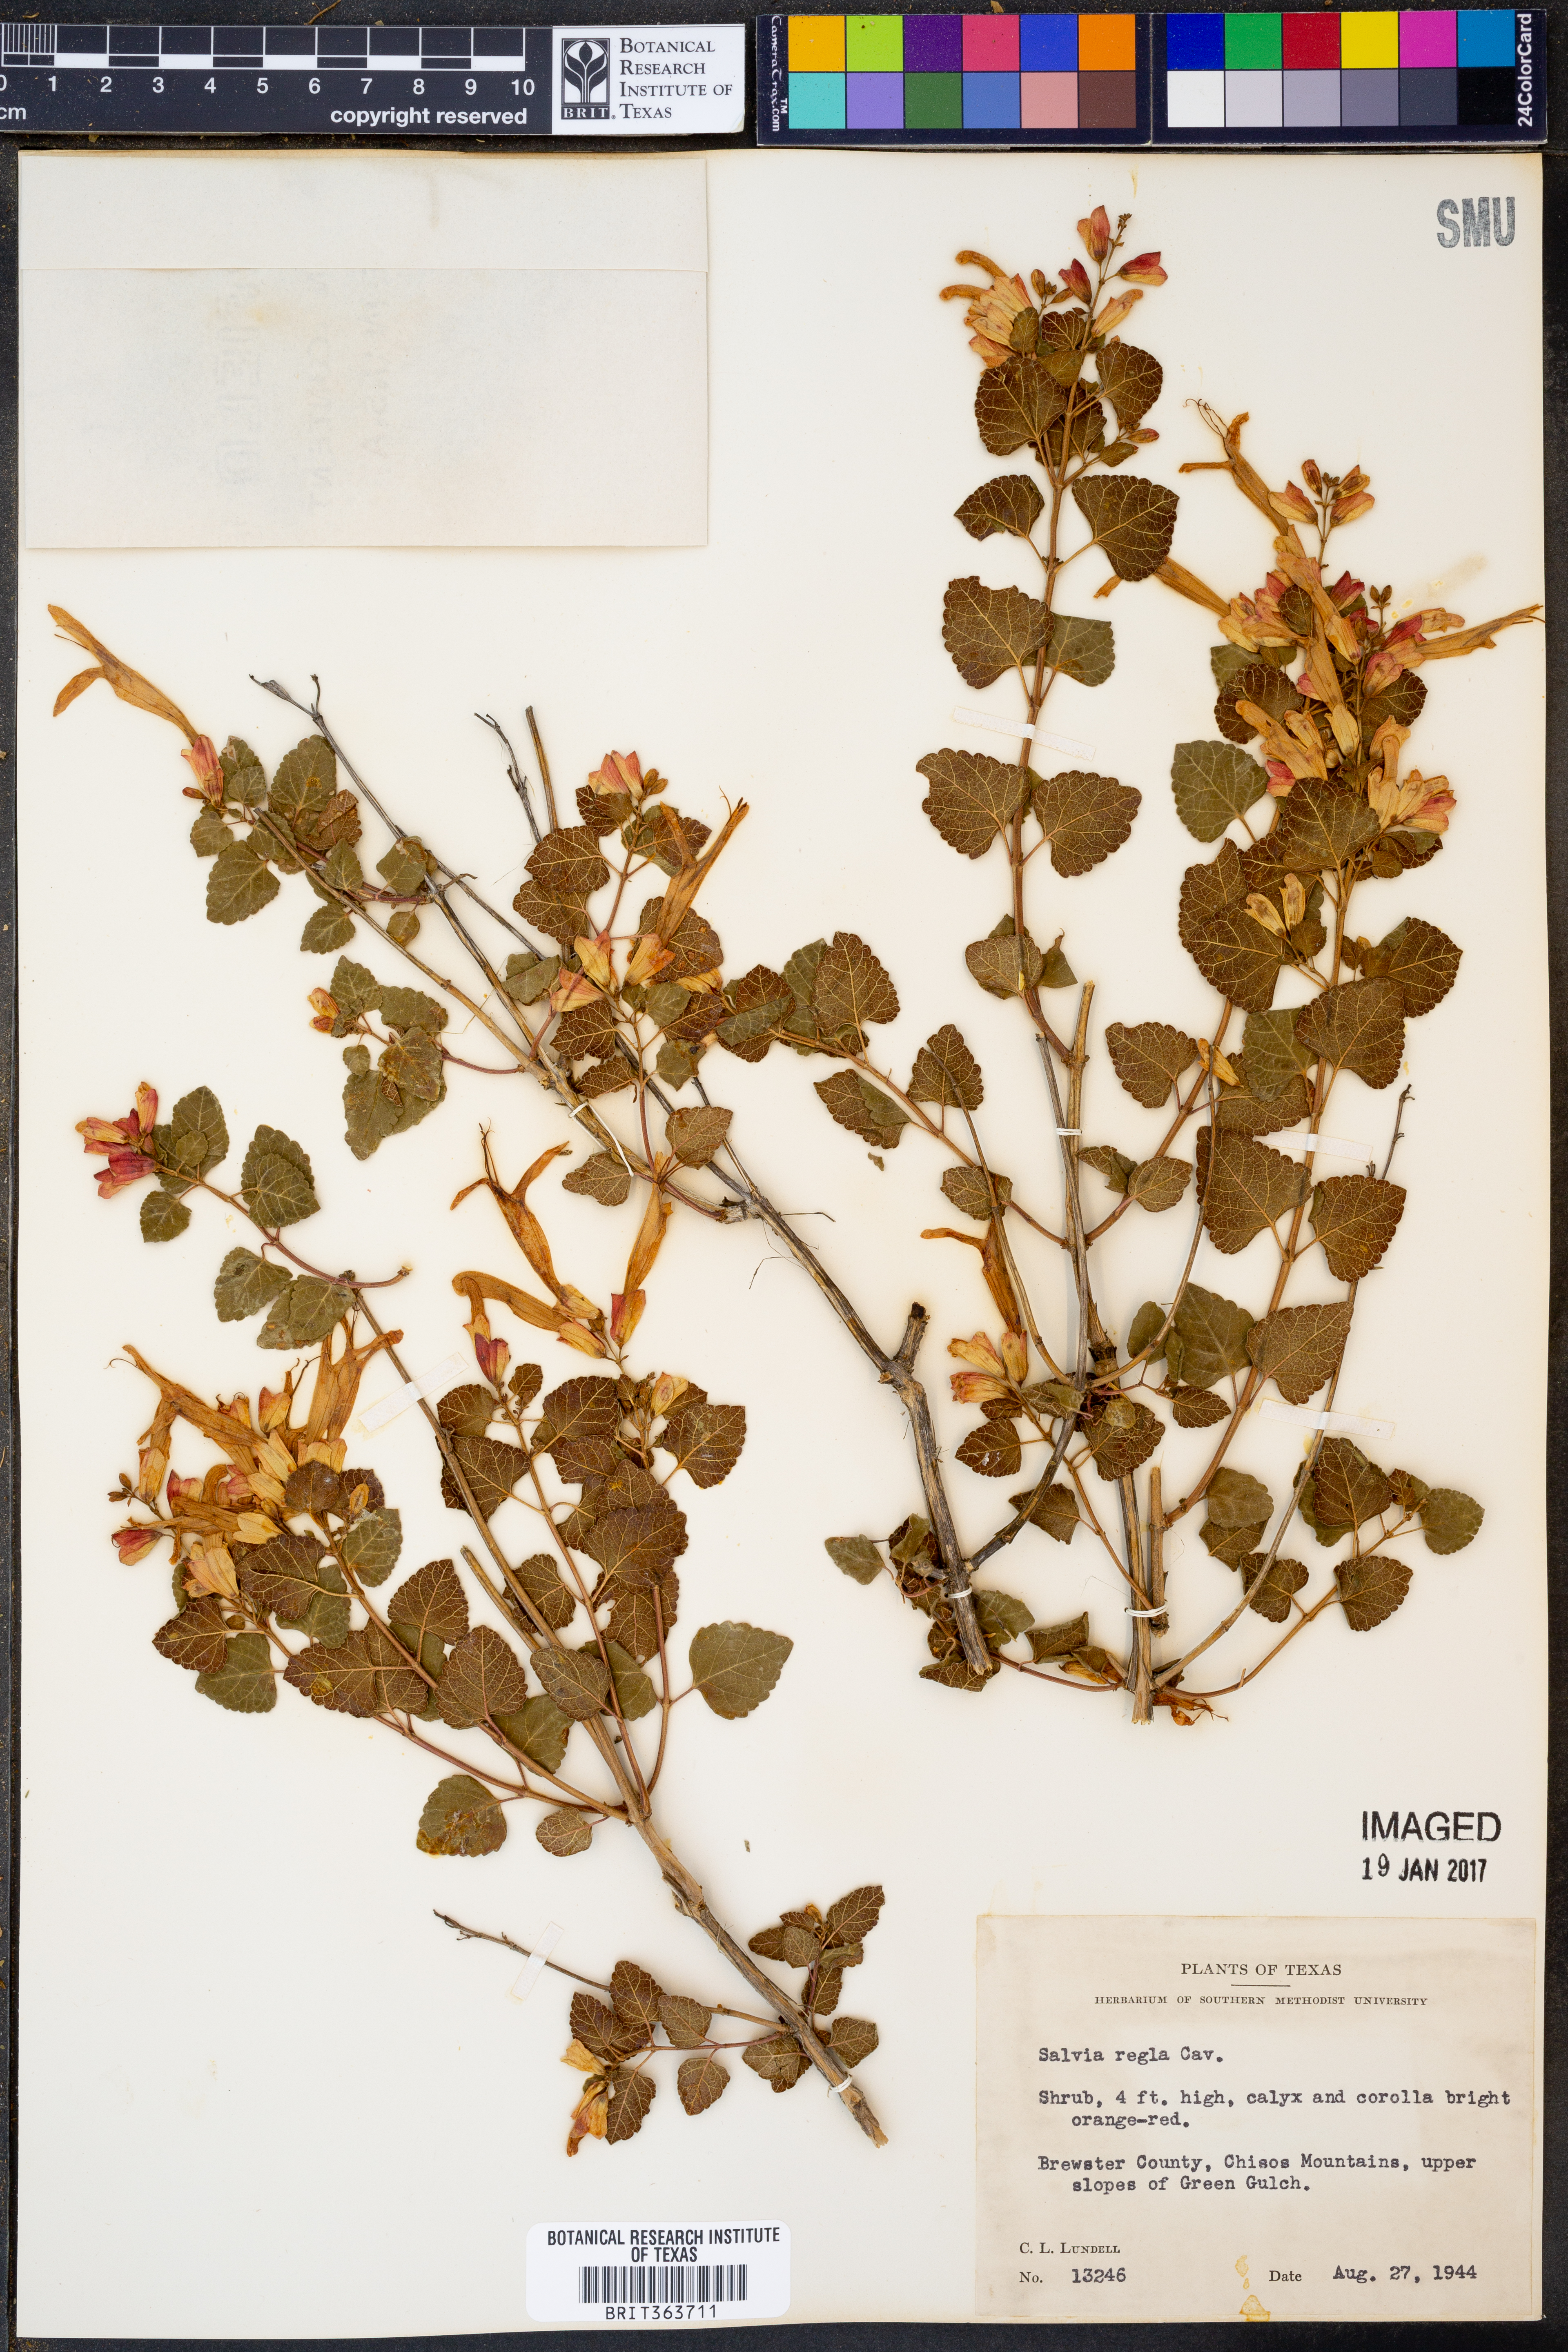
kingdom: Plantae
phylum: Tracheophyta
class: Magnoliopsida
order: Lamiales
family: Lamiaceae
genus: Salvia
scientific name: Salvia regla
